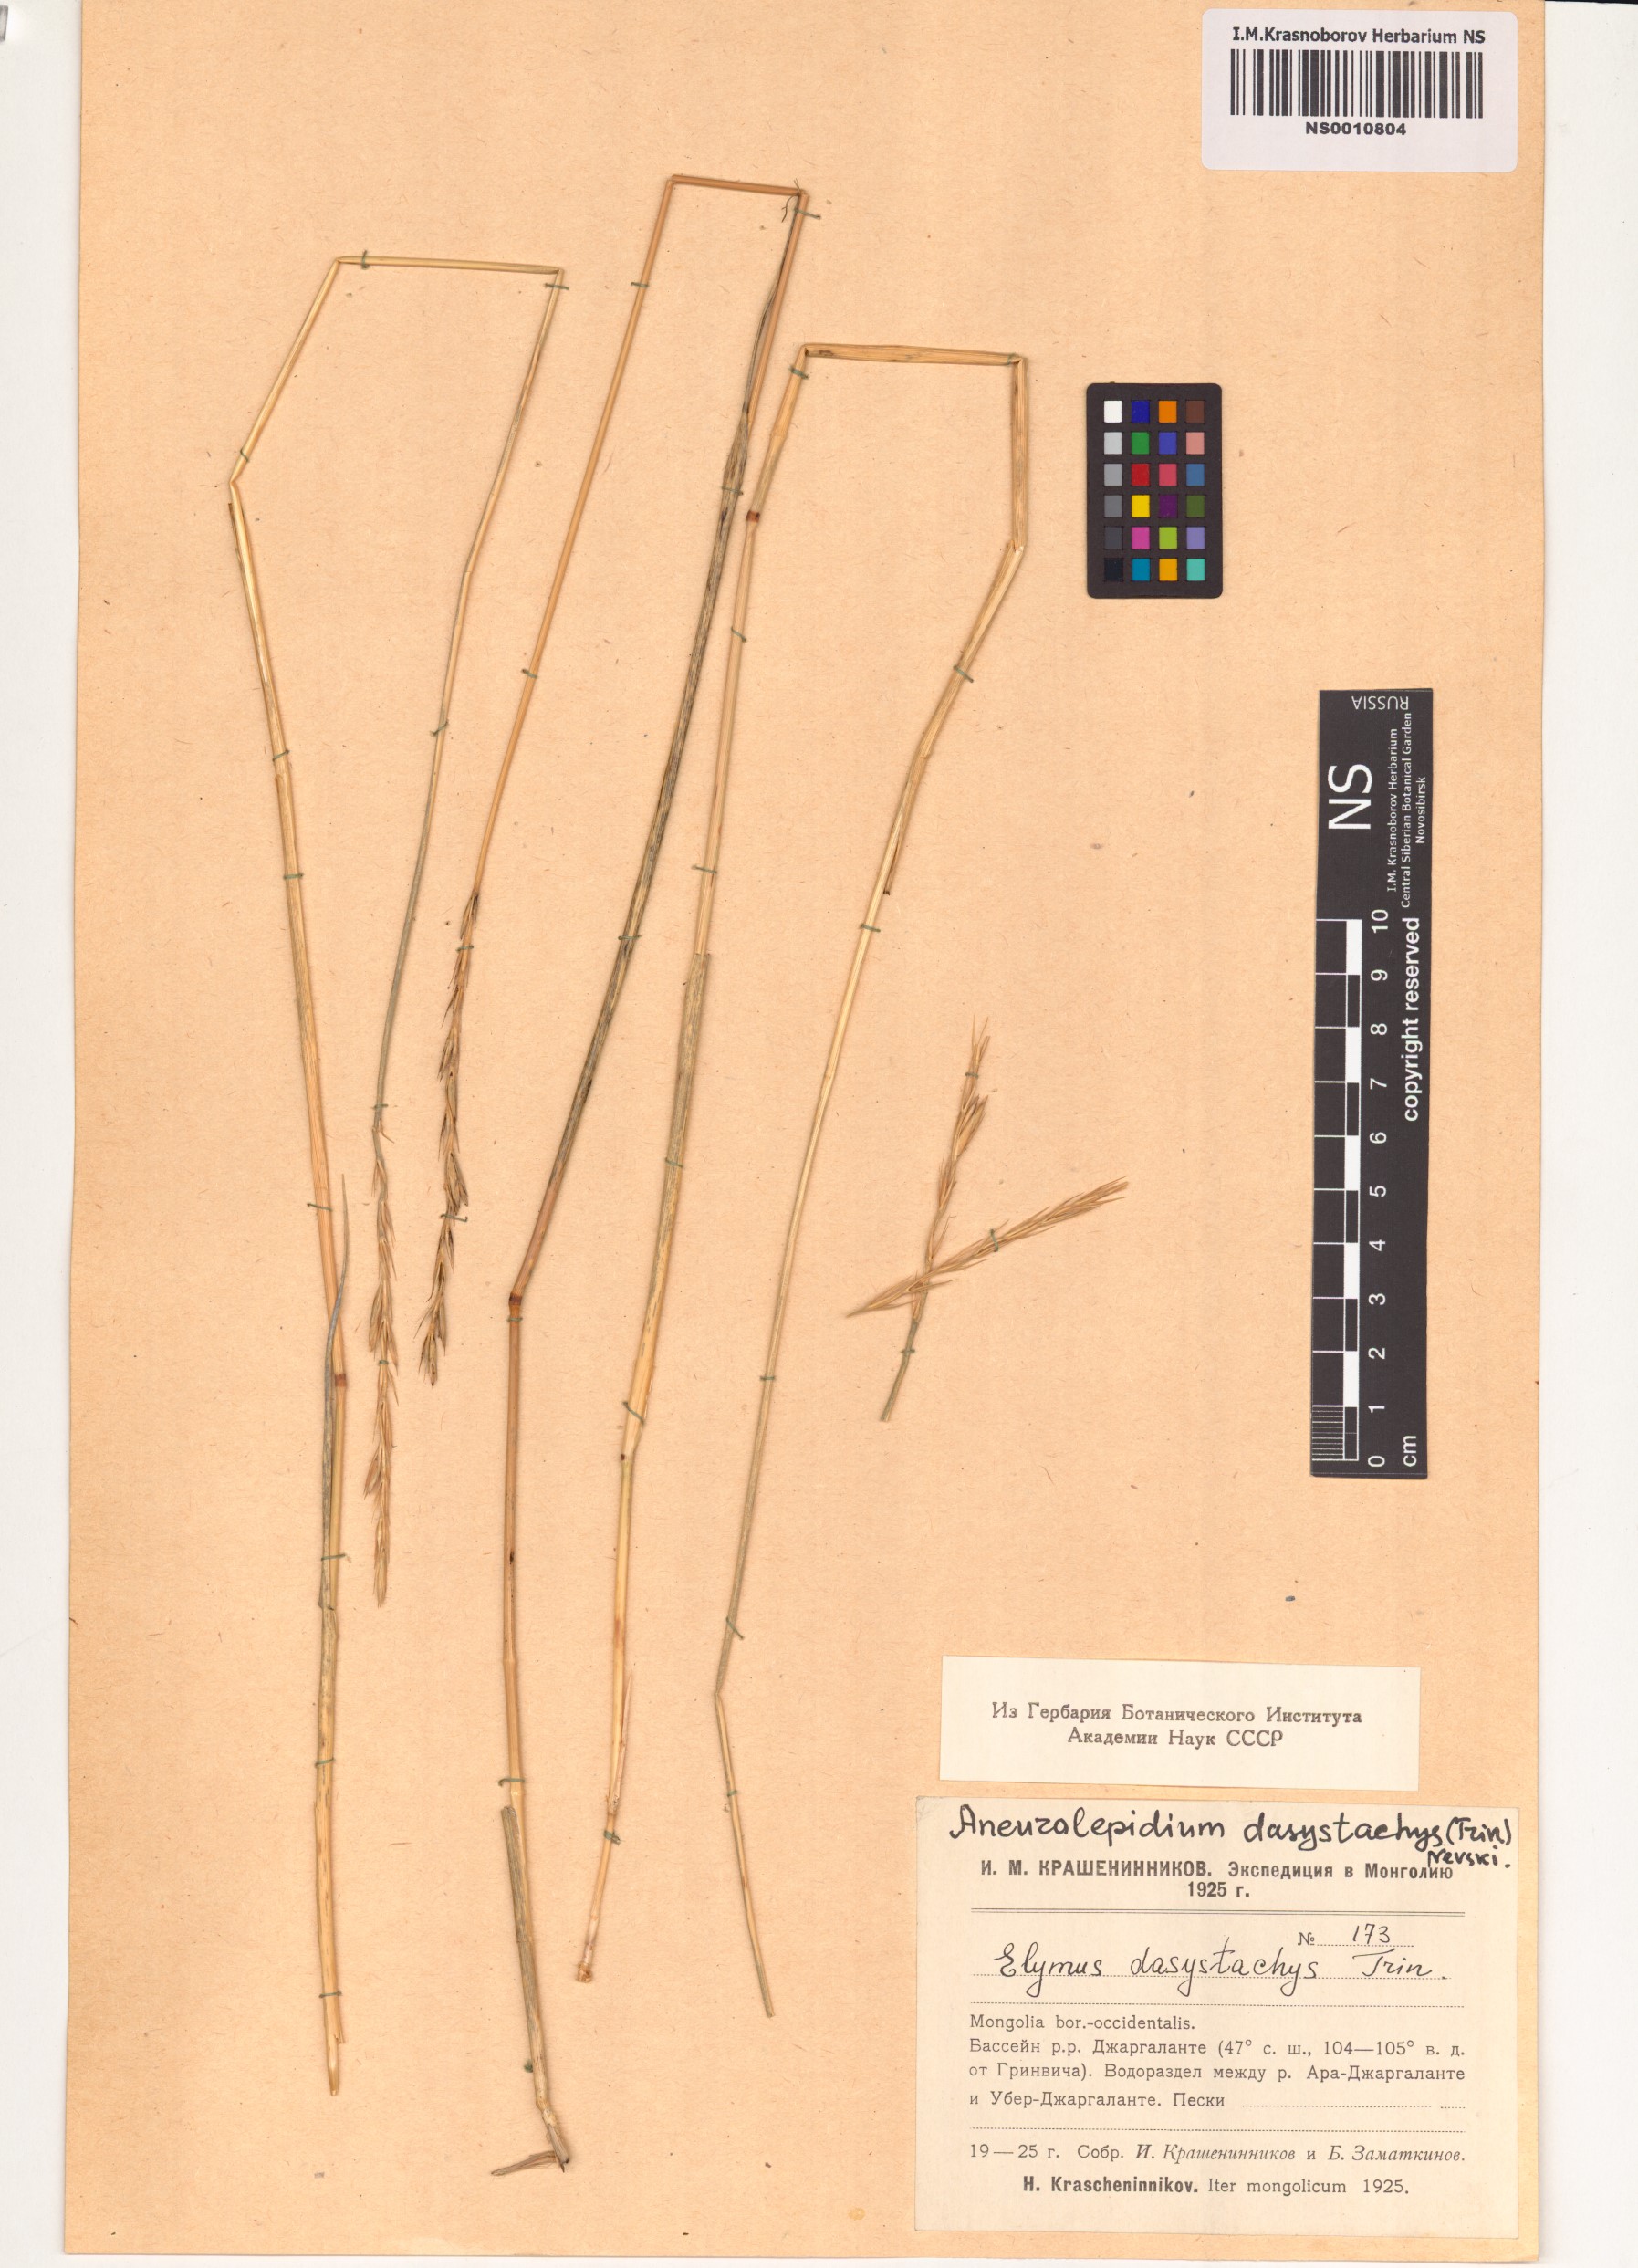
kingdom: Plantae
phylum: Tracheophyta
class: Liliopsida
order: Poales
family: Poaceae
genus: Leymus
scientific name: Leymus secalinus
